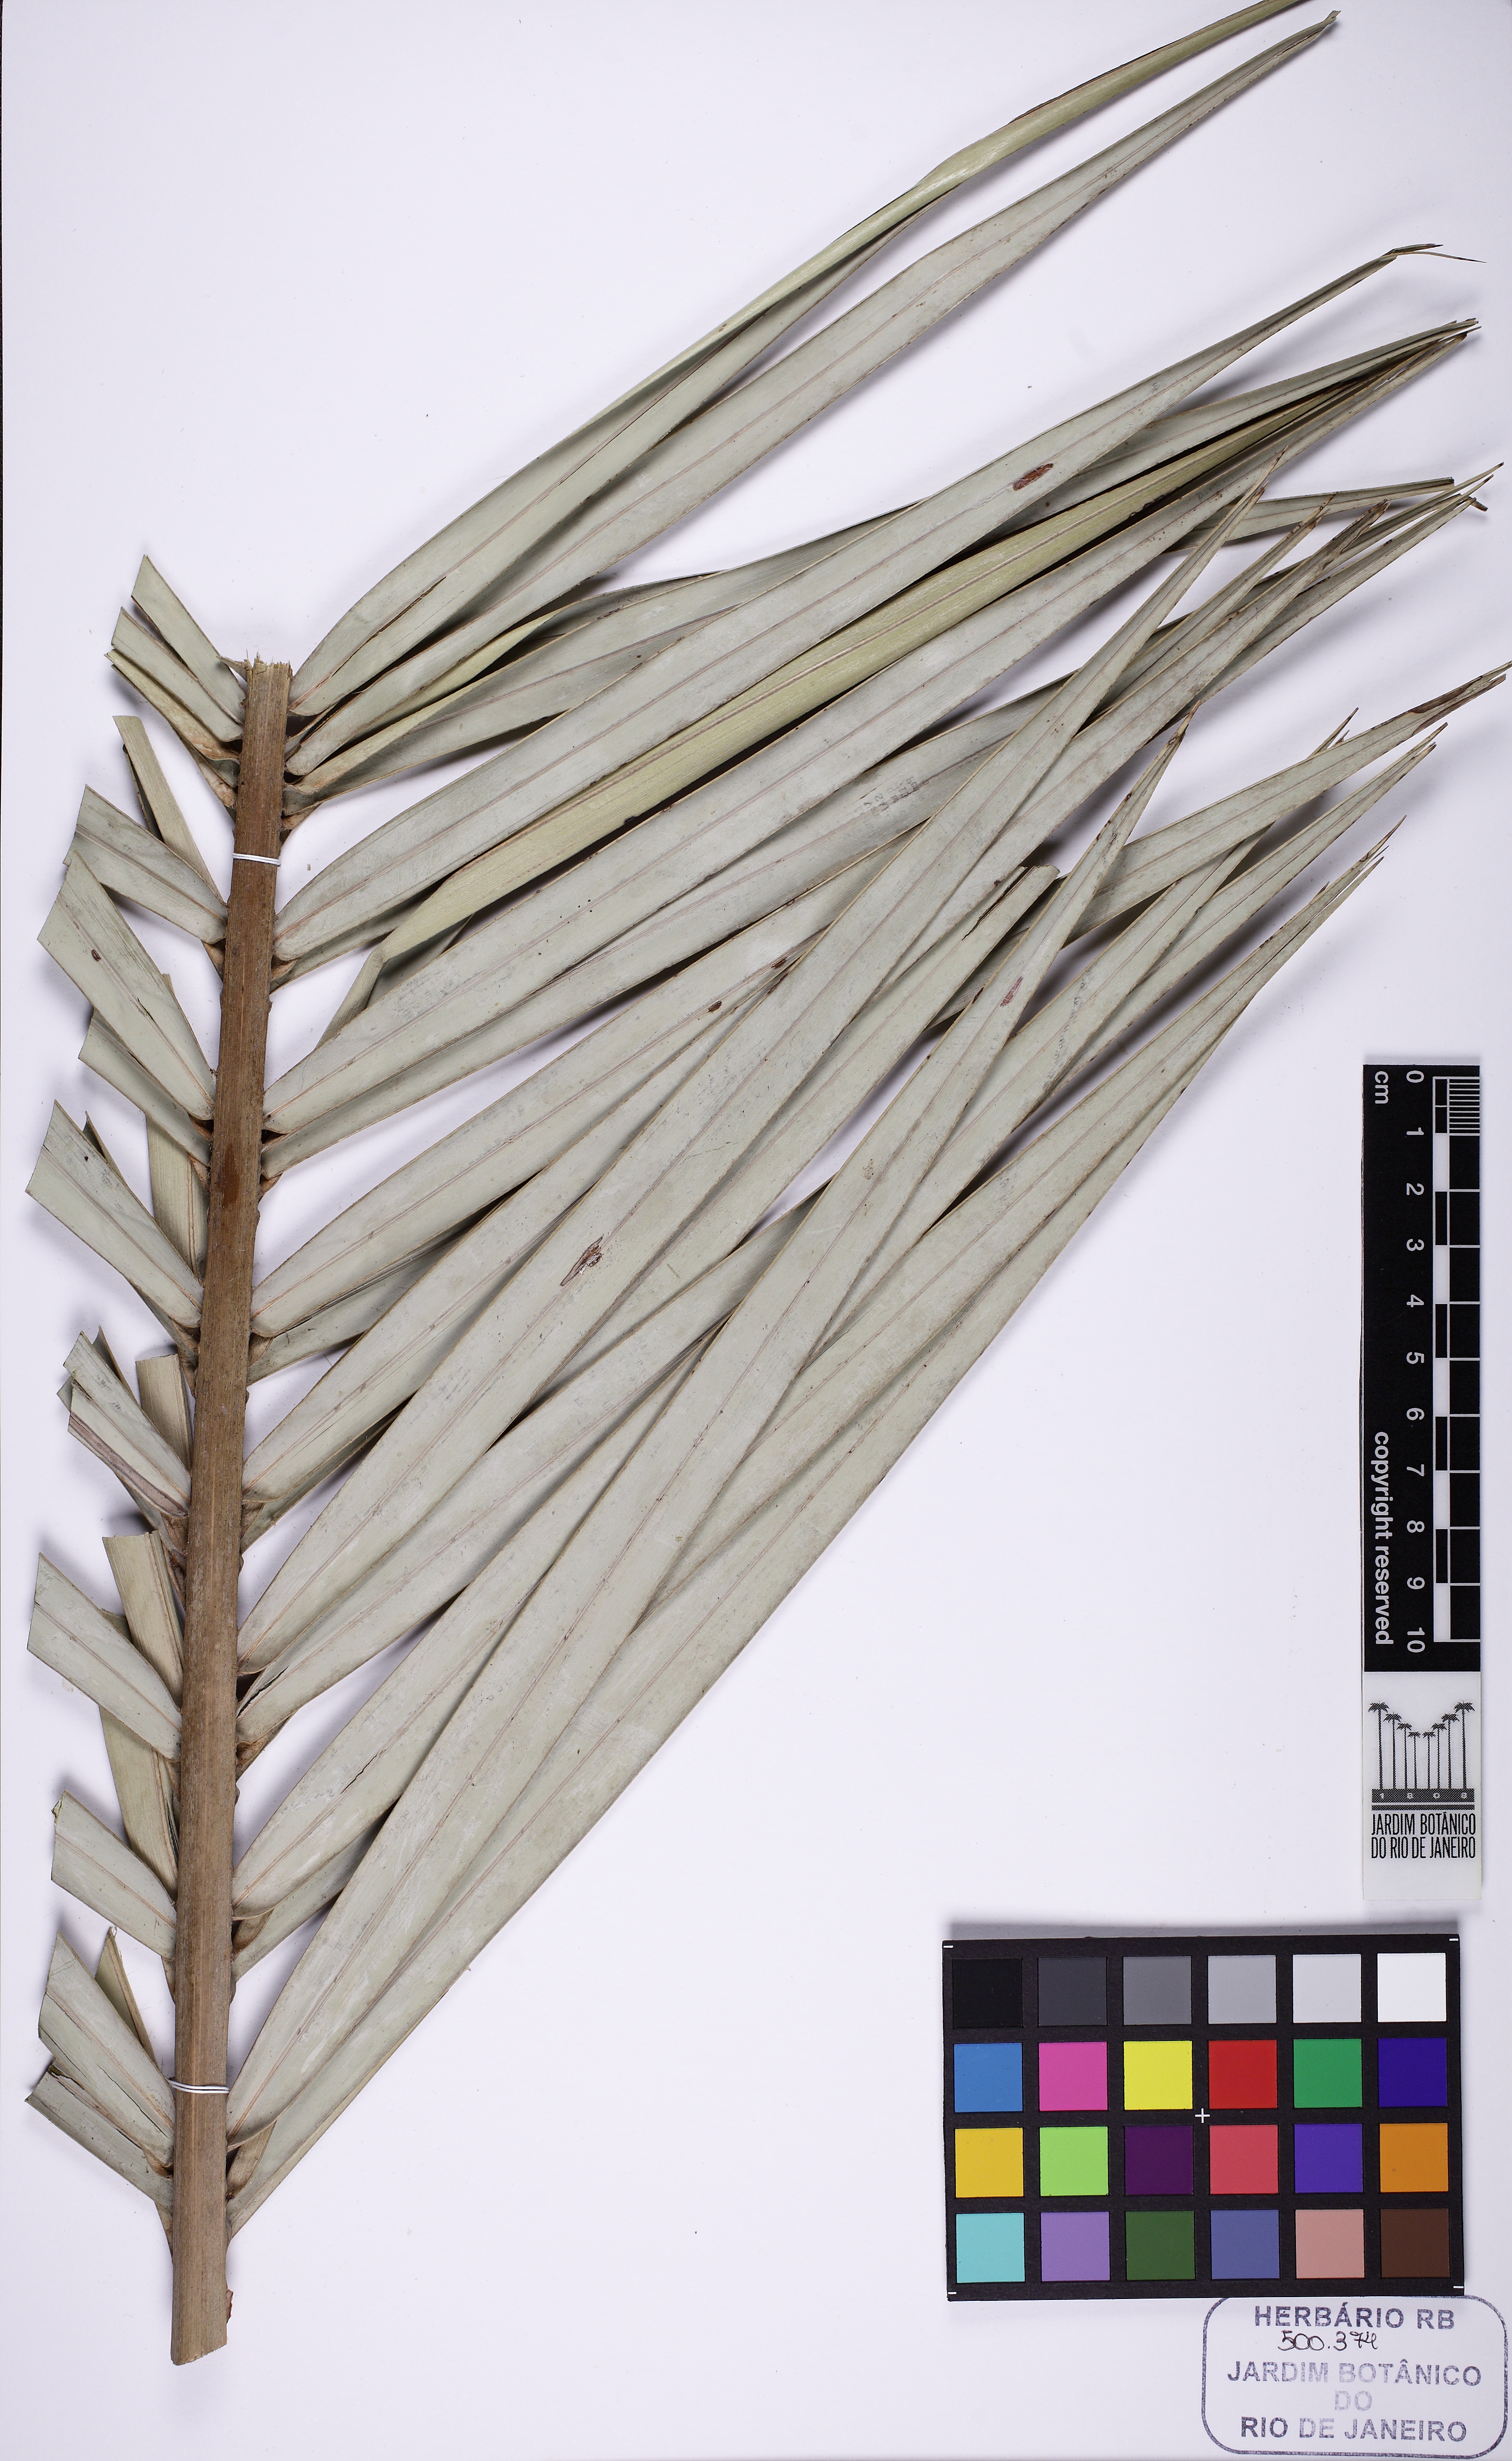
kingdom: Plantae
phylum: Tracheophyta
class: Liliopsida
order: Arecales
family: Arecaceae
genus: Allagoptera
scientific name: Allagoptera campestris
